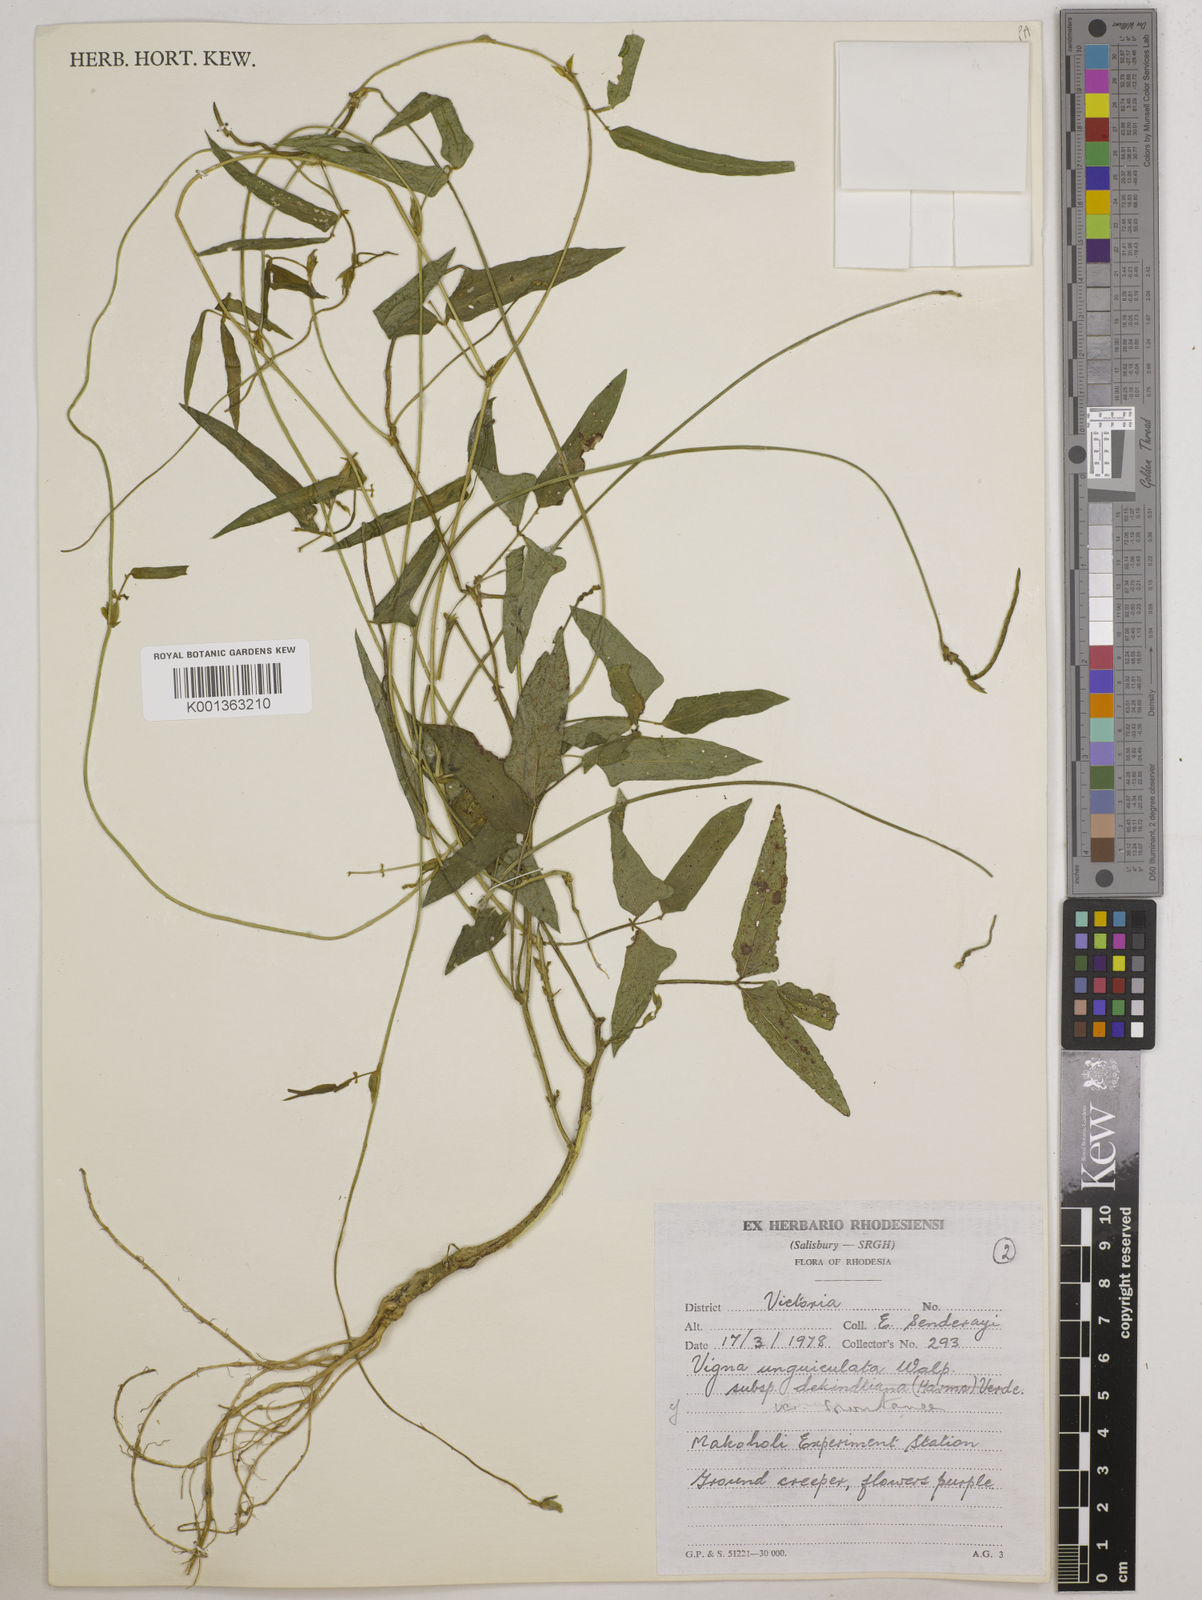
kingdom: Plantae
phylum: Tracheophyta
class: Magnoliopsida
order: Fabales
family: Fabaceae
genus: Vigna
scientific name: Vigna unguiculata
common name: Cowpea
